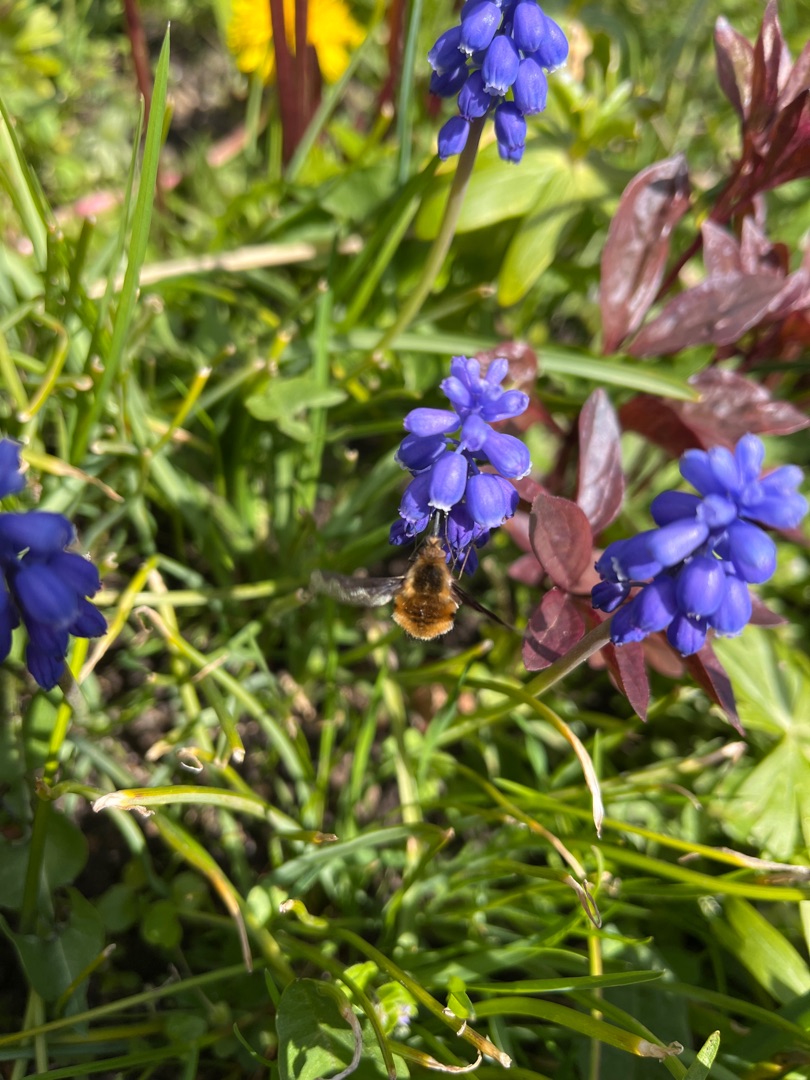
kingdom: Animalia
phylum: Arthropoda
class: Insecta
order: Diptera
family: Bombyliidae
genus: Bombylius
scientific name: Bombylius major
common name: Stor humleflue
